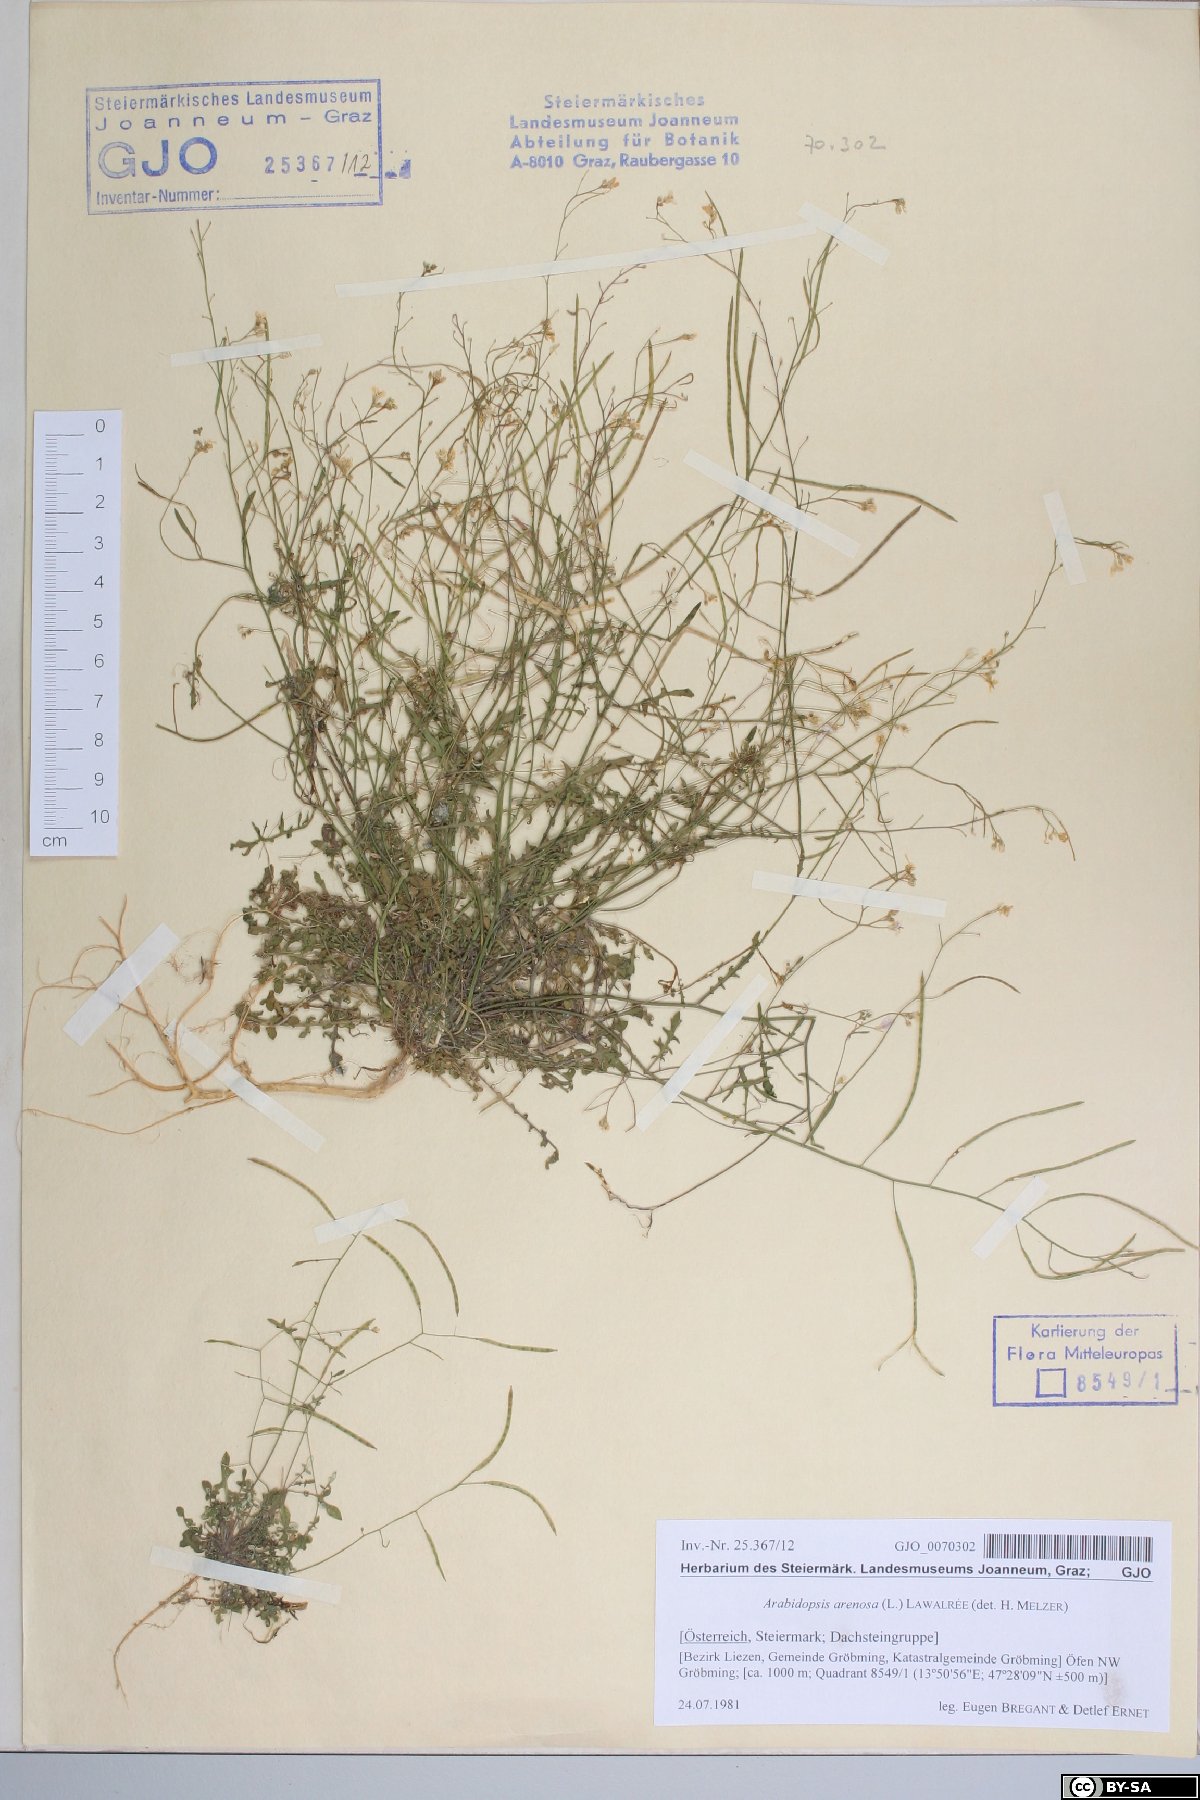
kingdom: Plantae
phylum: Tracheophyta
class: Magnoliopsida
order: Brassicales
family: Brassicaceae
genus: Arabidopsis
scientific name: Arabidopsis arenosa
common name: Sand rock-cress
